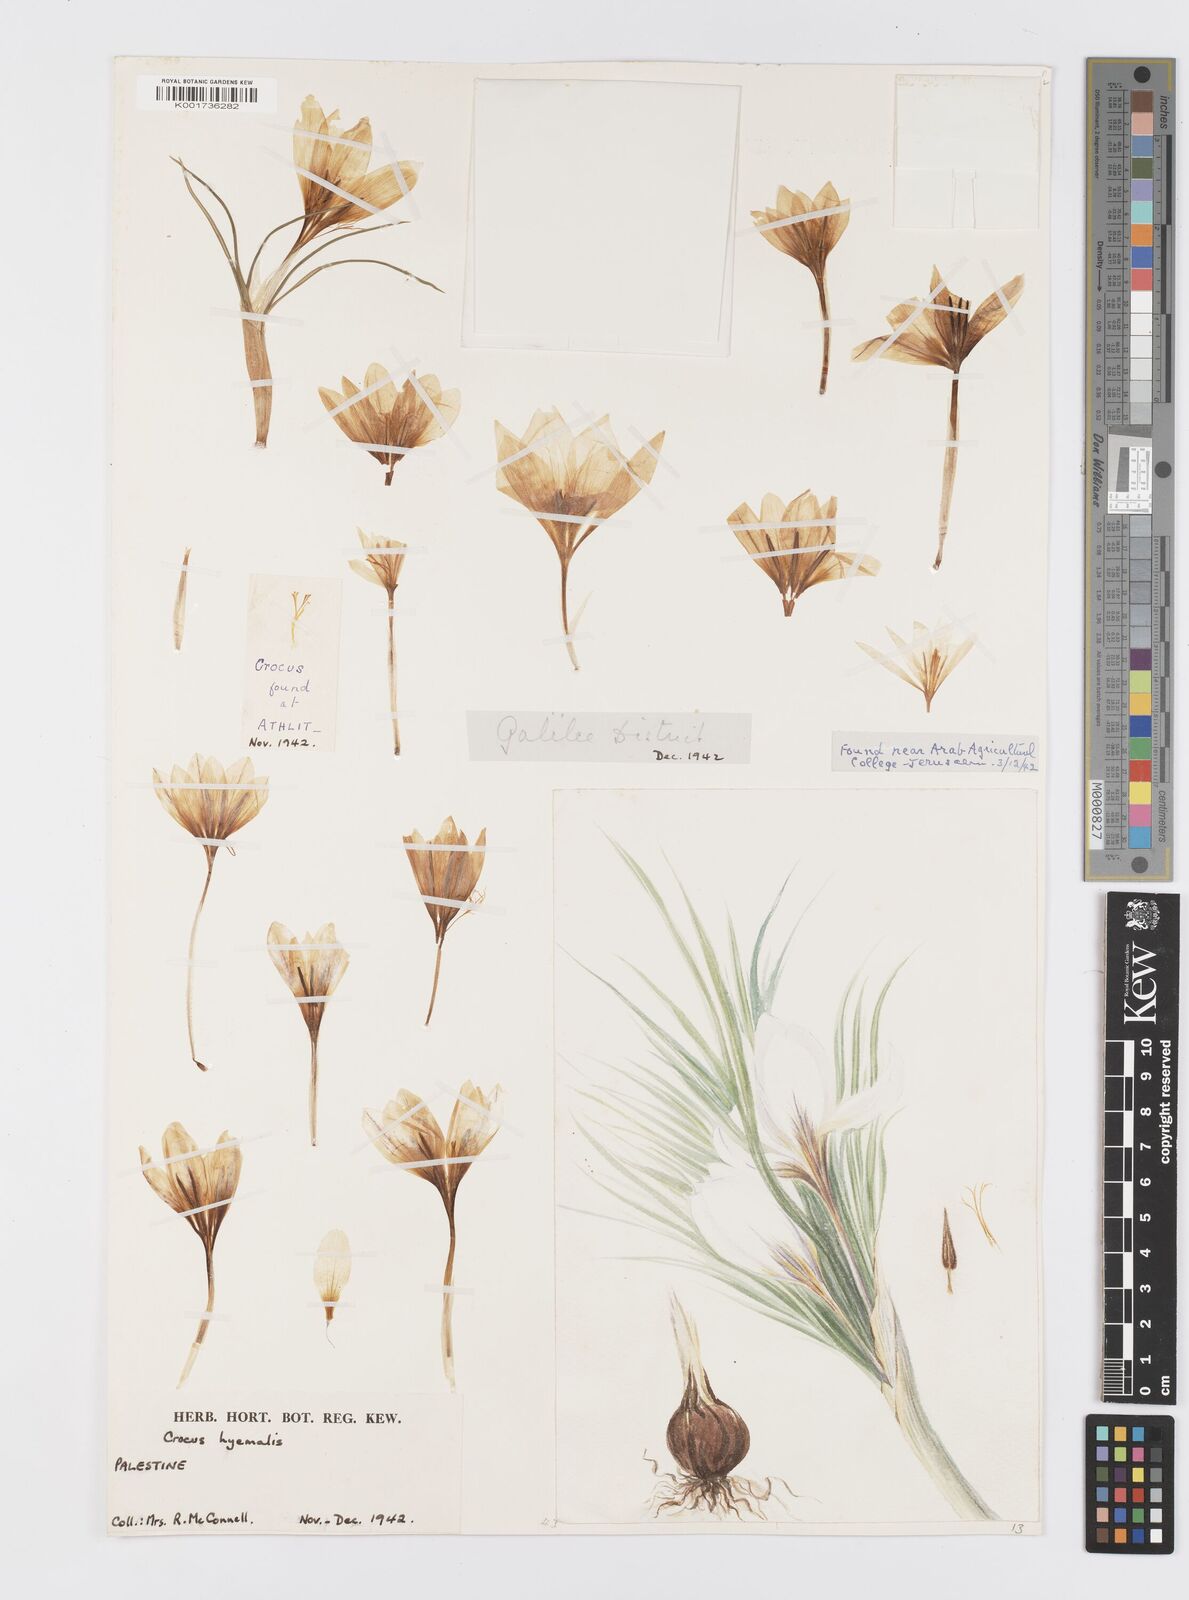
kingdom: Plantae
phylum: Tracheophyta
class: Liliopsida
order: Asparagales
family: Iridaceae
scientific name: Iridaceae
